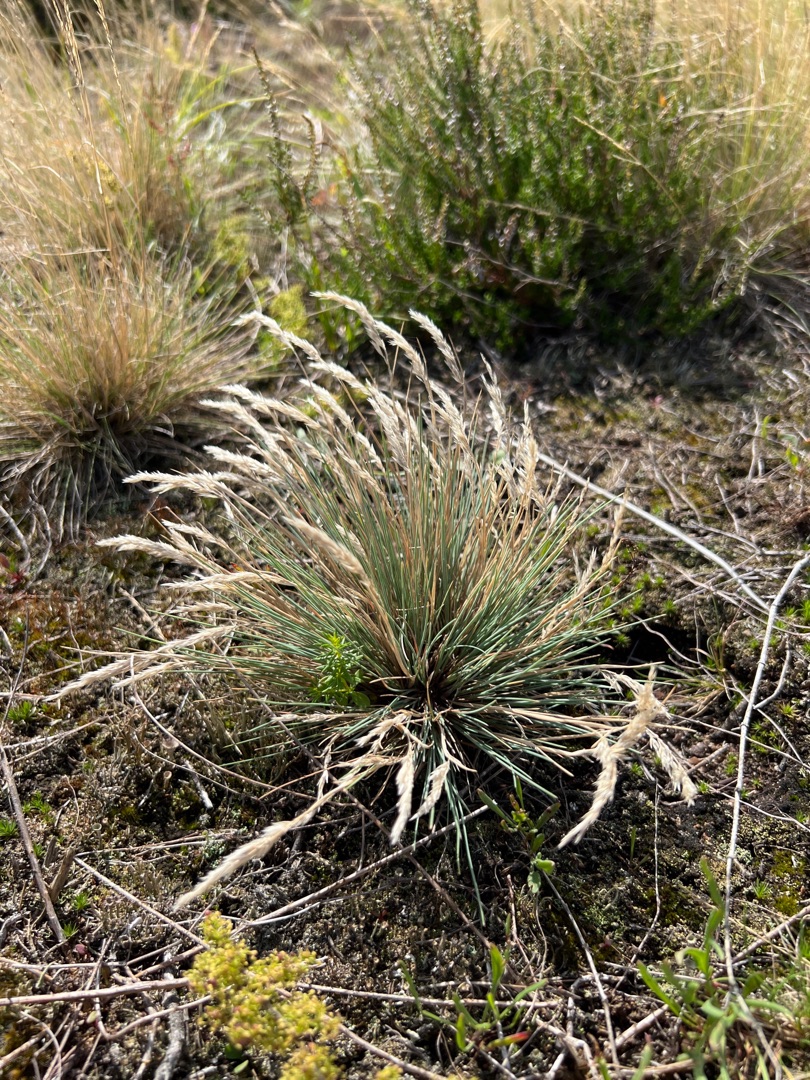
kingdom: Plantae
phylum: Tracheophyta
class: Liliopsida
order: Poales
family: Poaceae
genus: Corynephorus
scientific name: Corynephorus canescens
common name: Sandskæg
